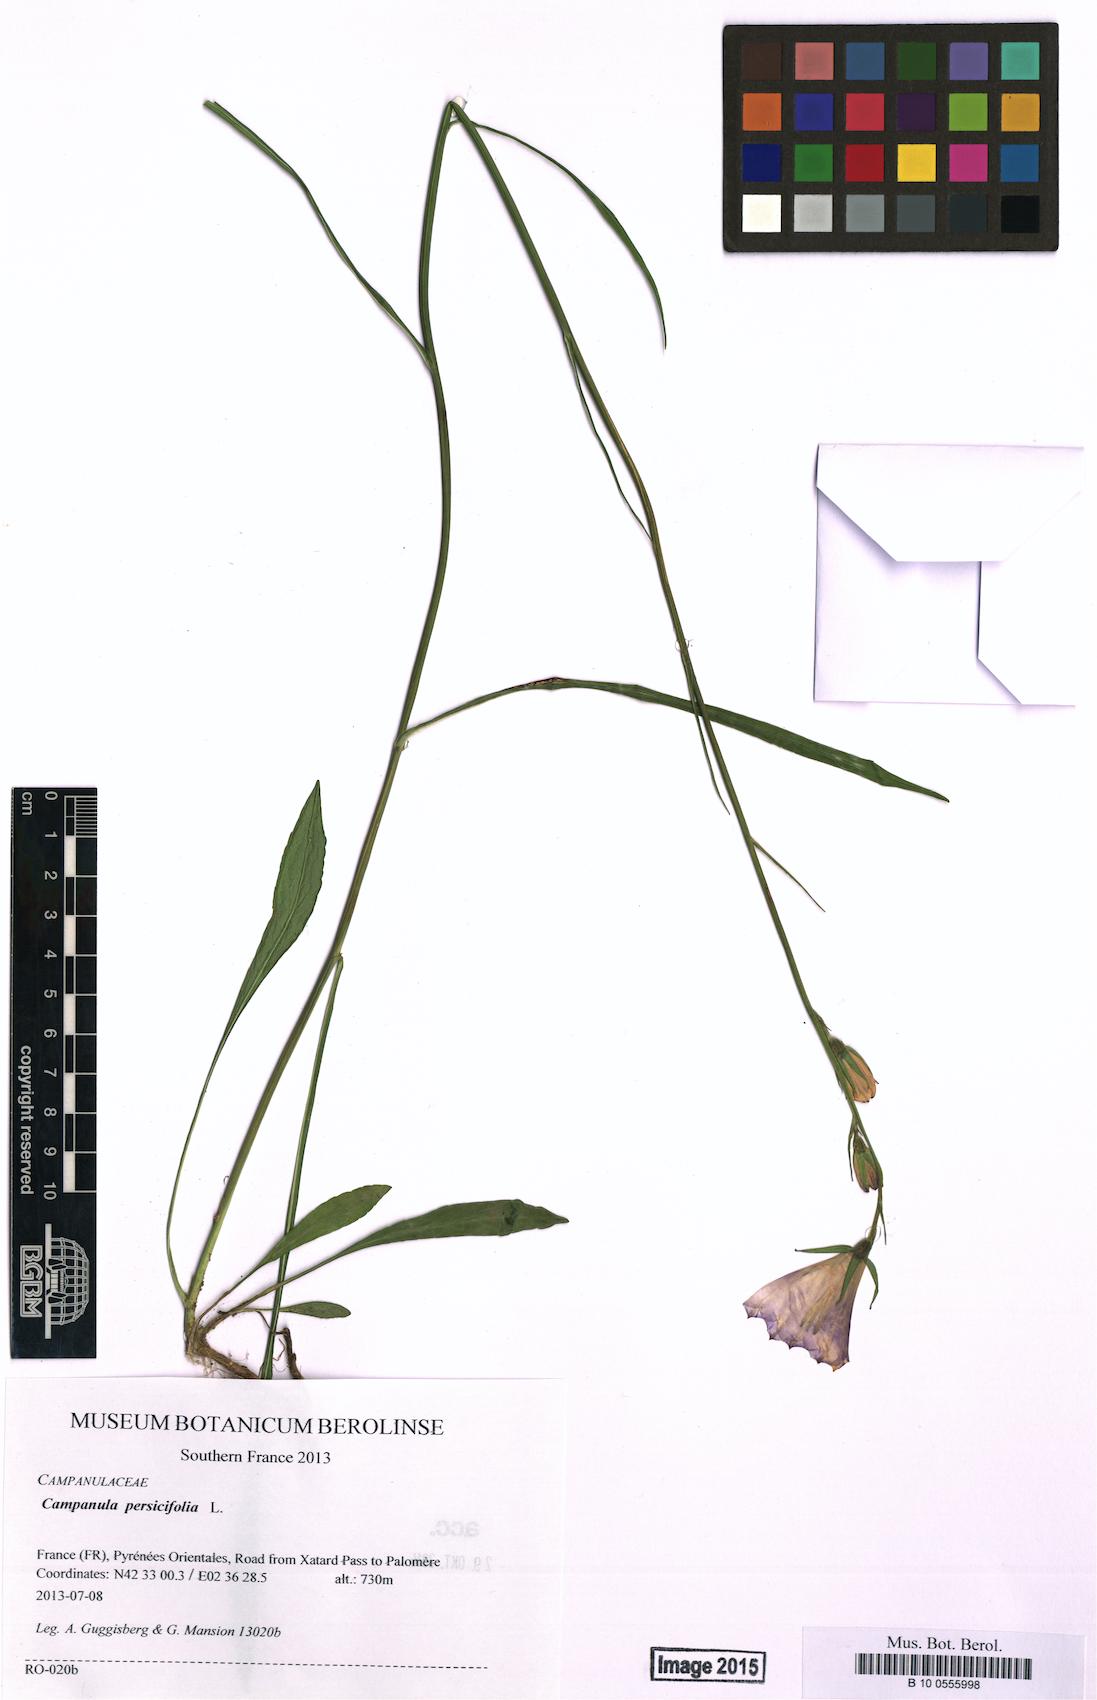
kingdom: Plantae
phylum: Tracheophyta
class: Magnoliopsida
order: Asterales
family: Campanulaceae
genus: Campanula
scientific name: Campanula persicifolia
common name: Peach-leaved bellflower
